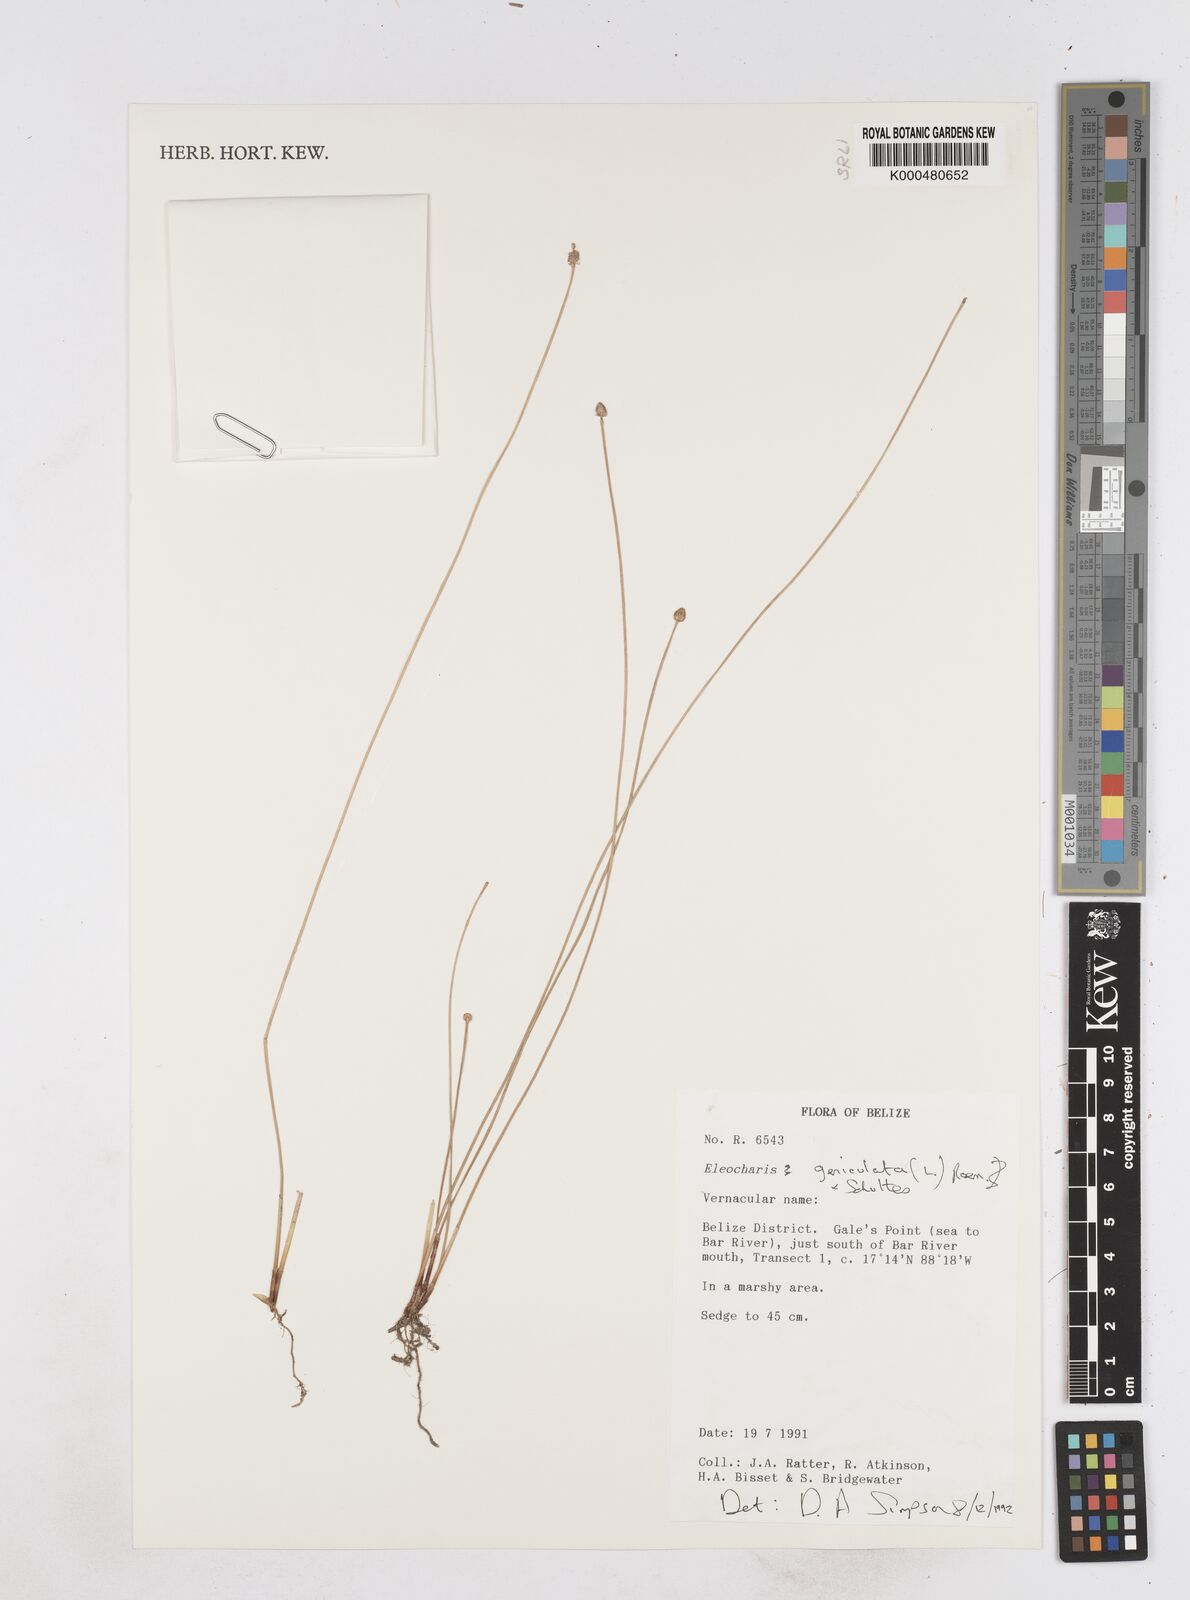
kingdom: Plantae
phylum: Tracheophyta
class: Liliopsida
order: Poales
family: Cyperaceae
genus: Eleocharis
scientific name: Eleocharis geniculata
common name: Canada spikesedge
